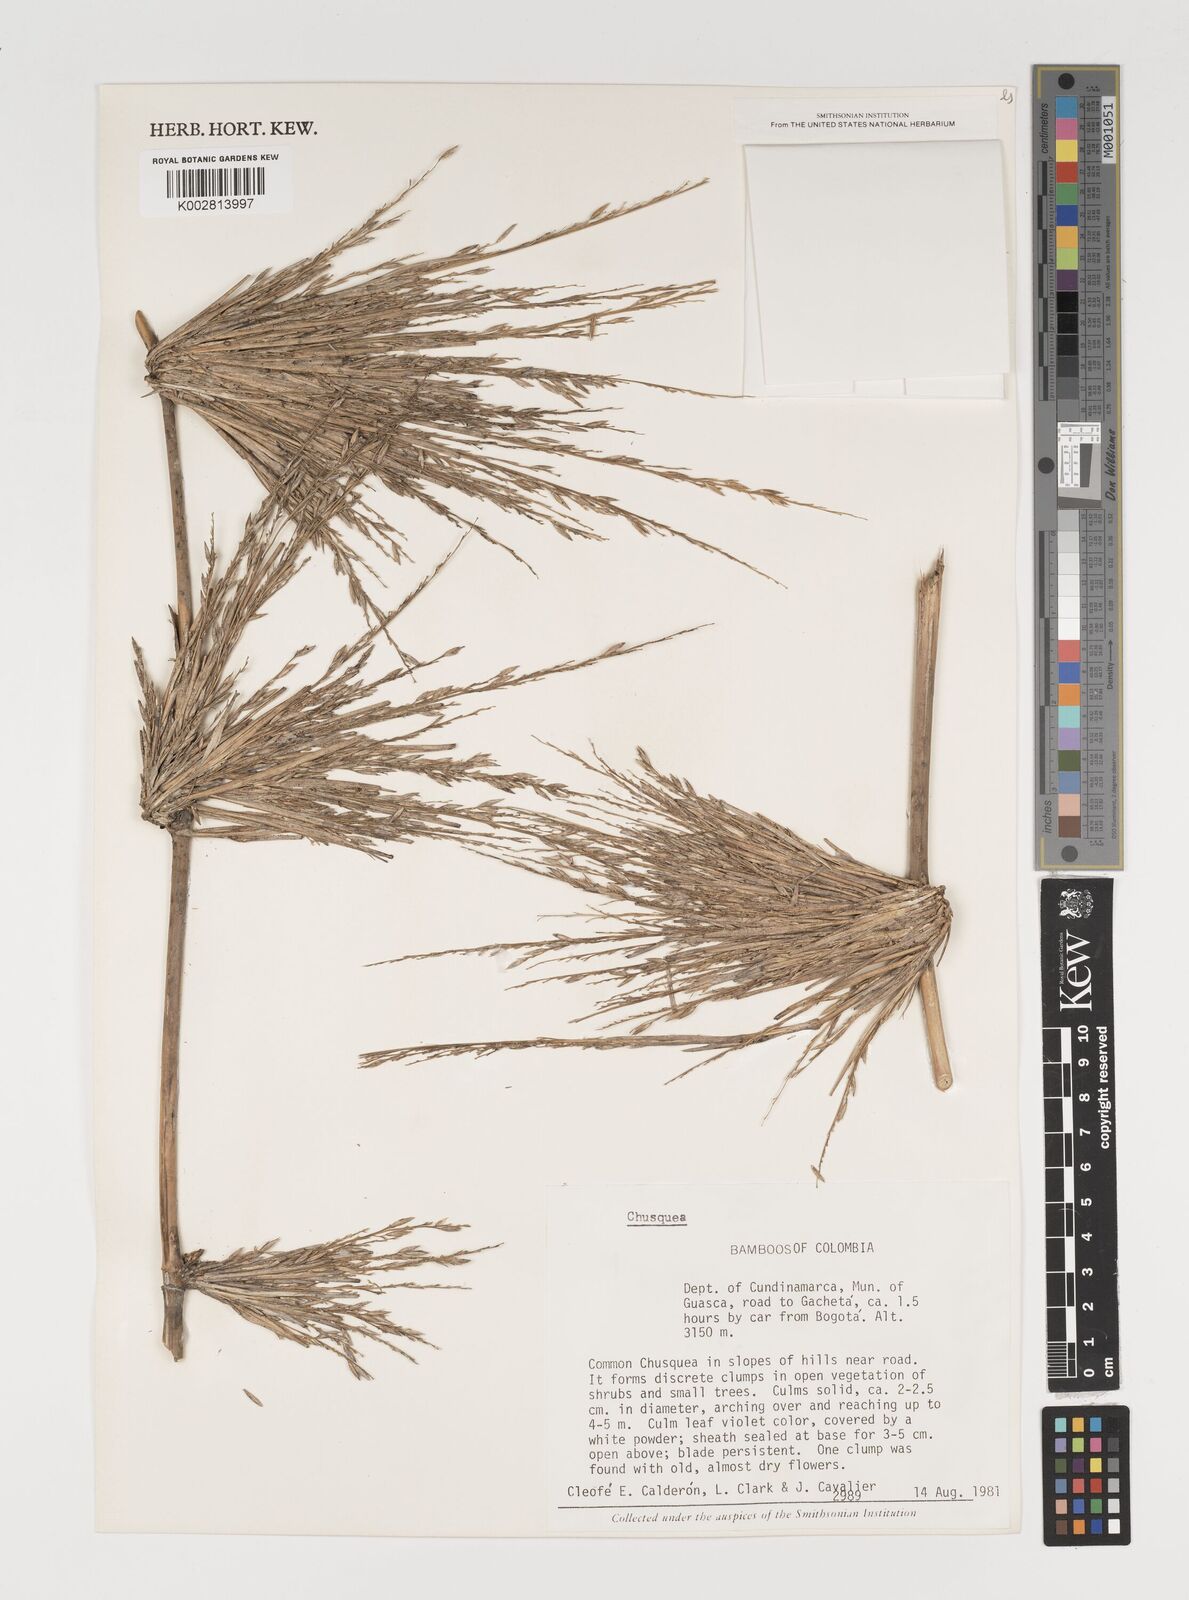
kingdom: Plantae
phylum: Tracheophyta
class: Liliopsida
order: Poales
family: Poaceae
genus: Chusquea
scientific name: Chusquea
